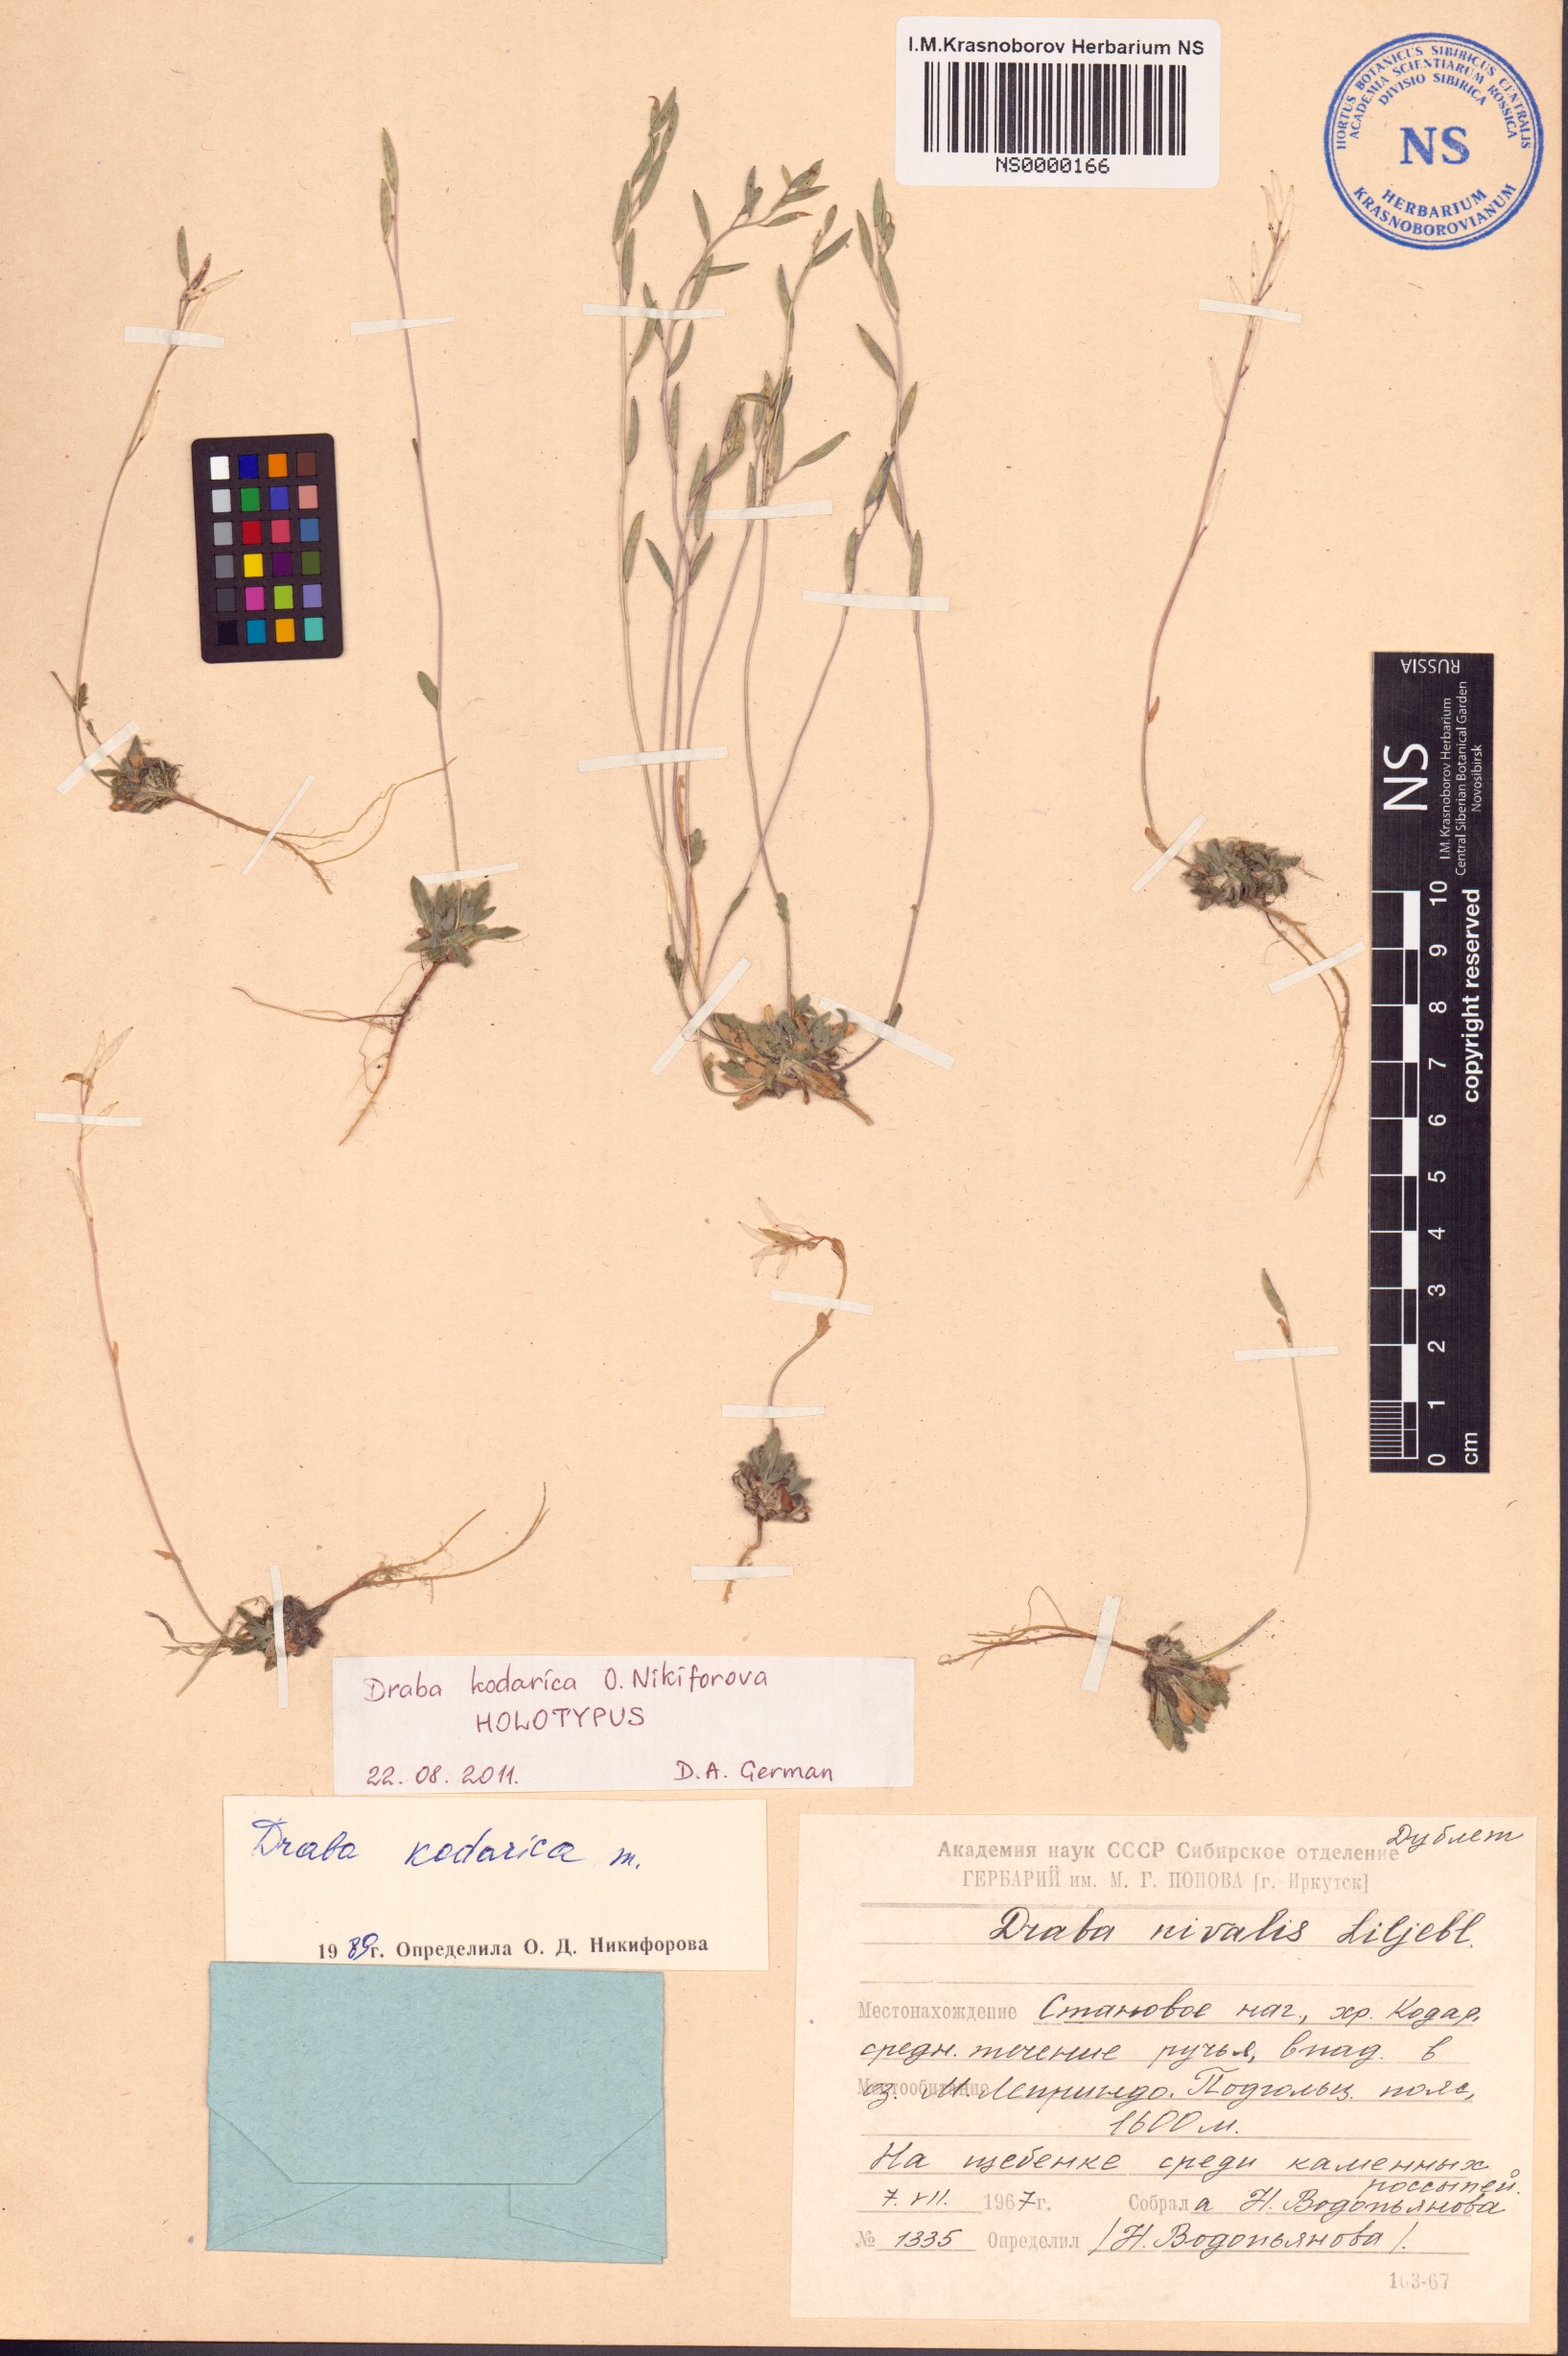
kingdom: Plantae
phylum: Tracheophyta
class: Magnoliopsida
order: Brassicales
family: Brassicaceae
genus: Draba
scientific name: Draba kodarica
